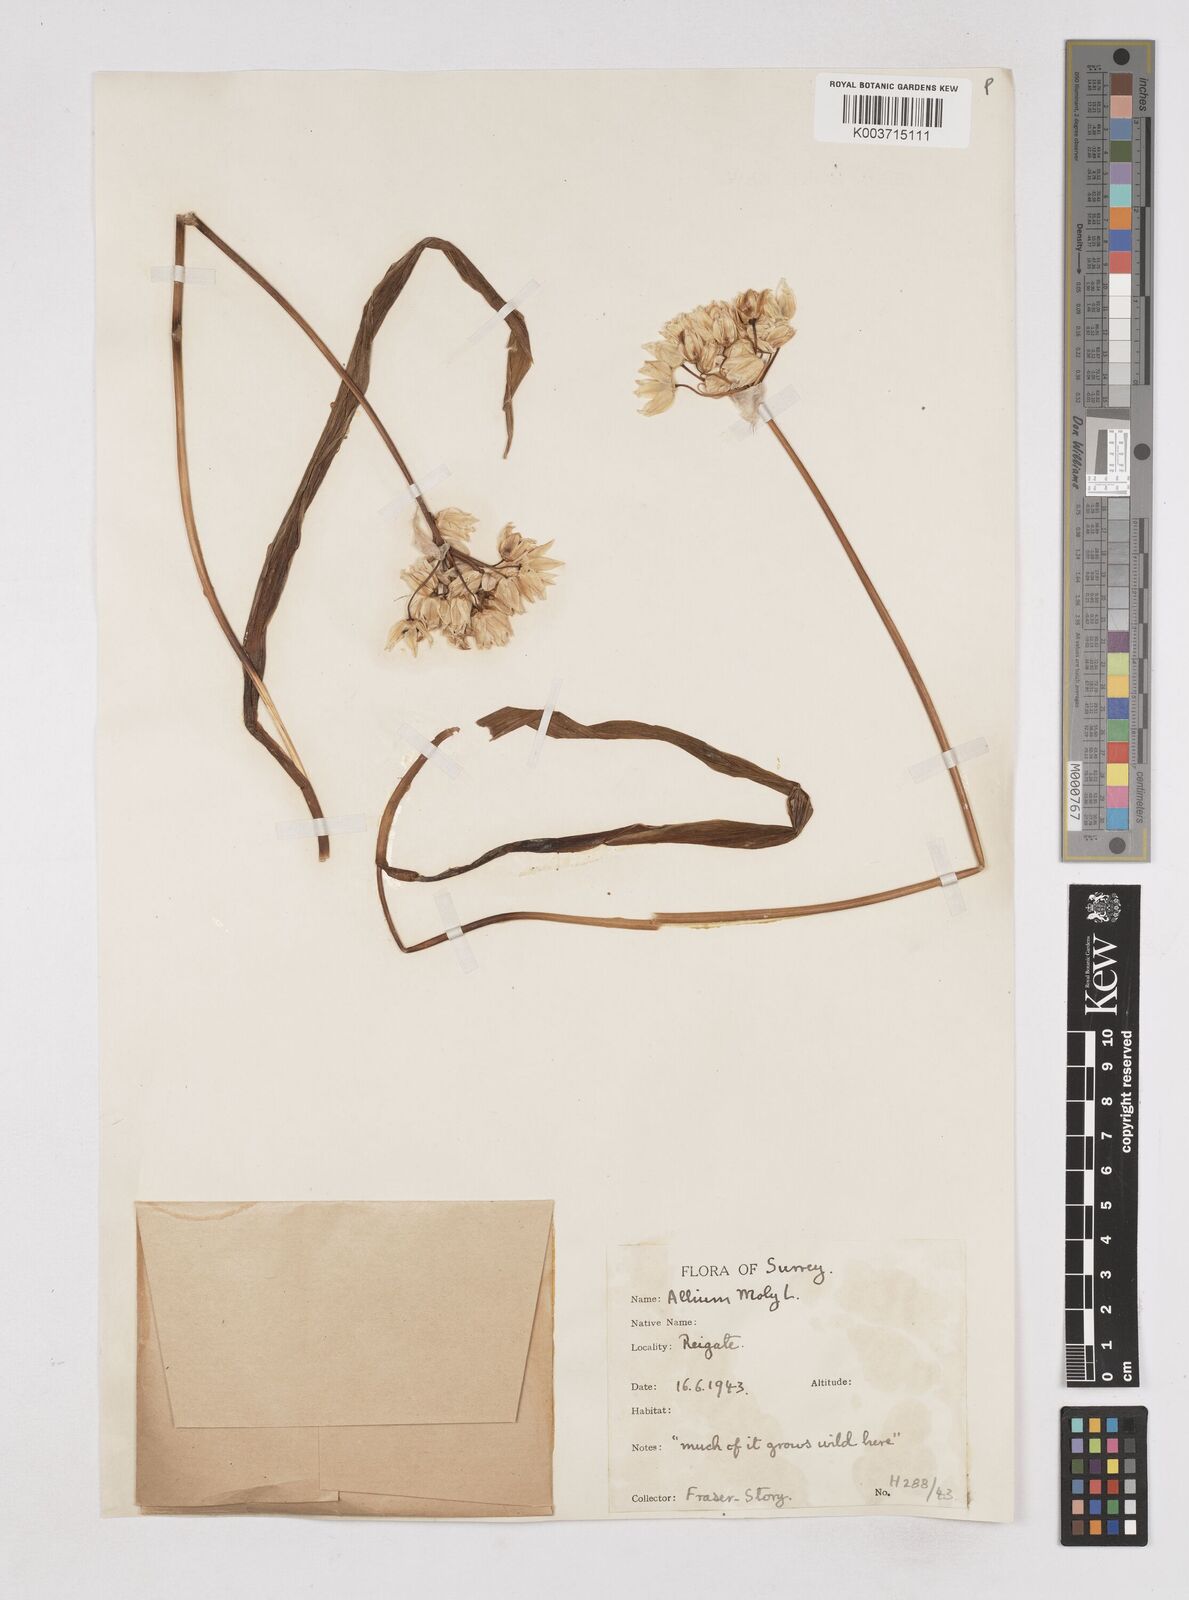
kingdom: Plantae
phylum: Tracheophyta
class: Liliopsida
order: Asparagales
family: Amaryllidaceae
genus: Allium
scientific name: Allium moly
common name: Yellow garlic
